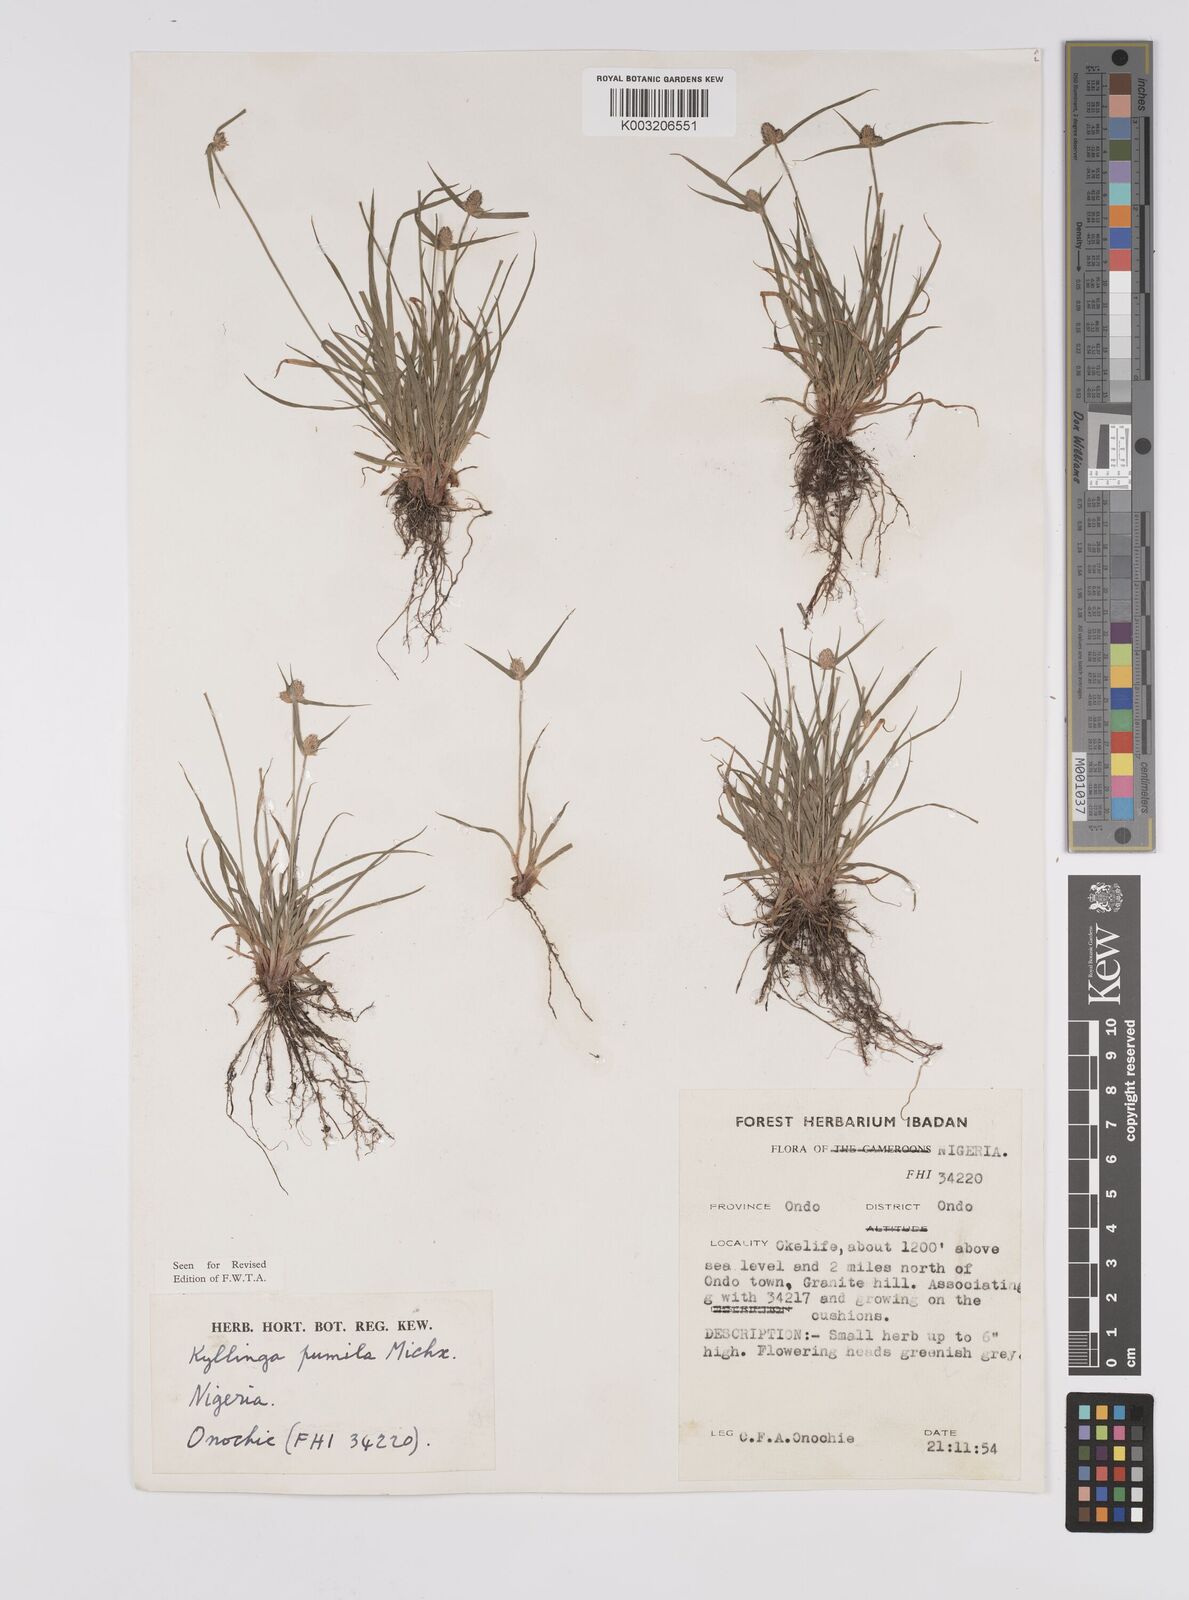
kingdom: Plantae
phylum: Tracheophyta
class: Liliopsida
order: Poales
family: Cyperaceae
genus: Cyperus
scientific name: Cyperus
